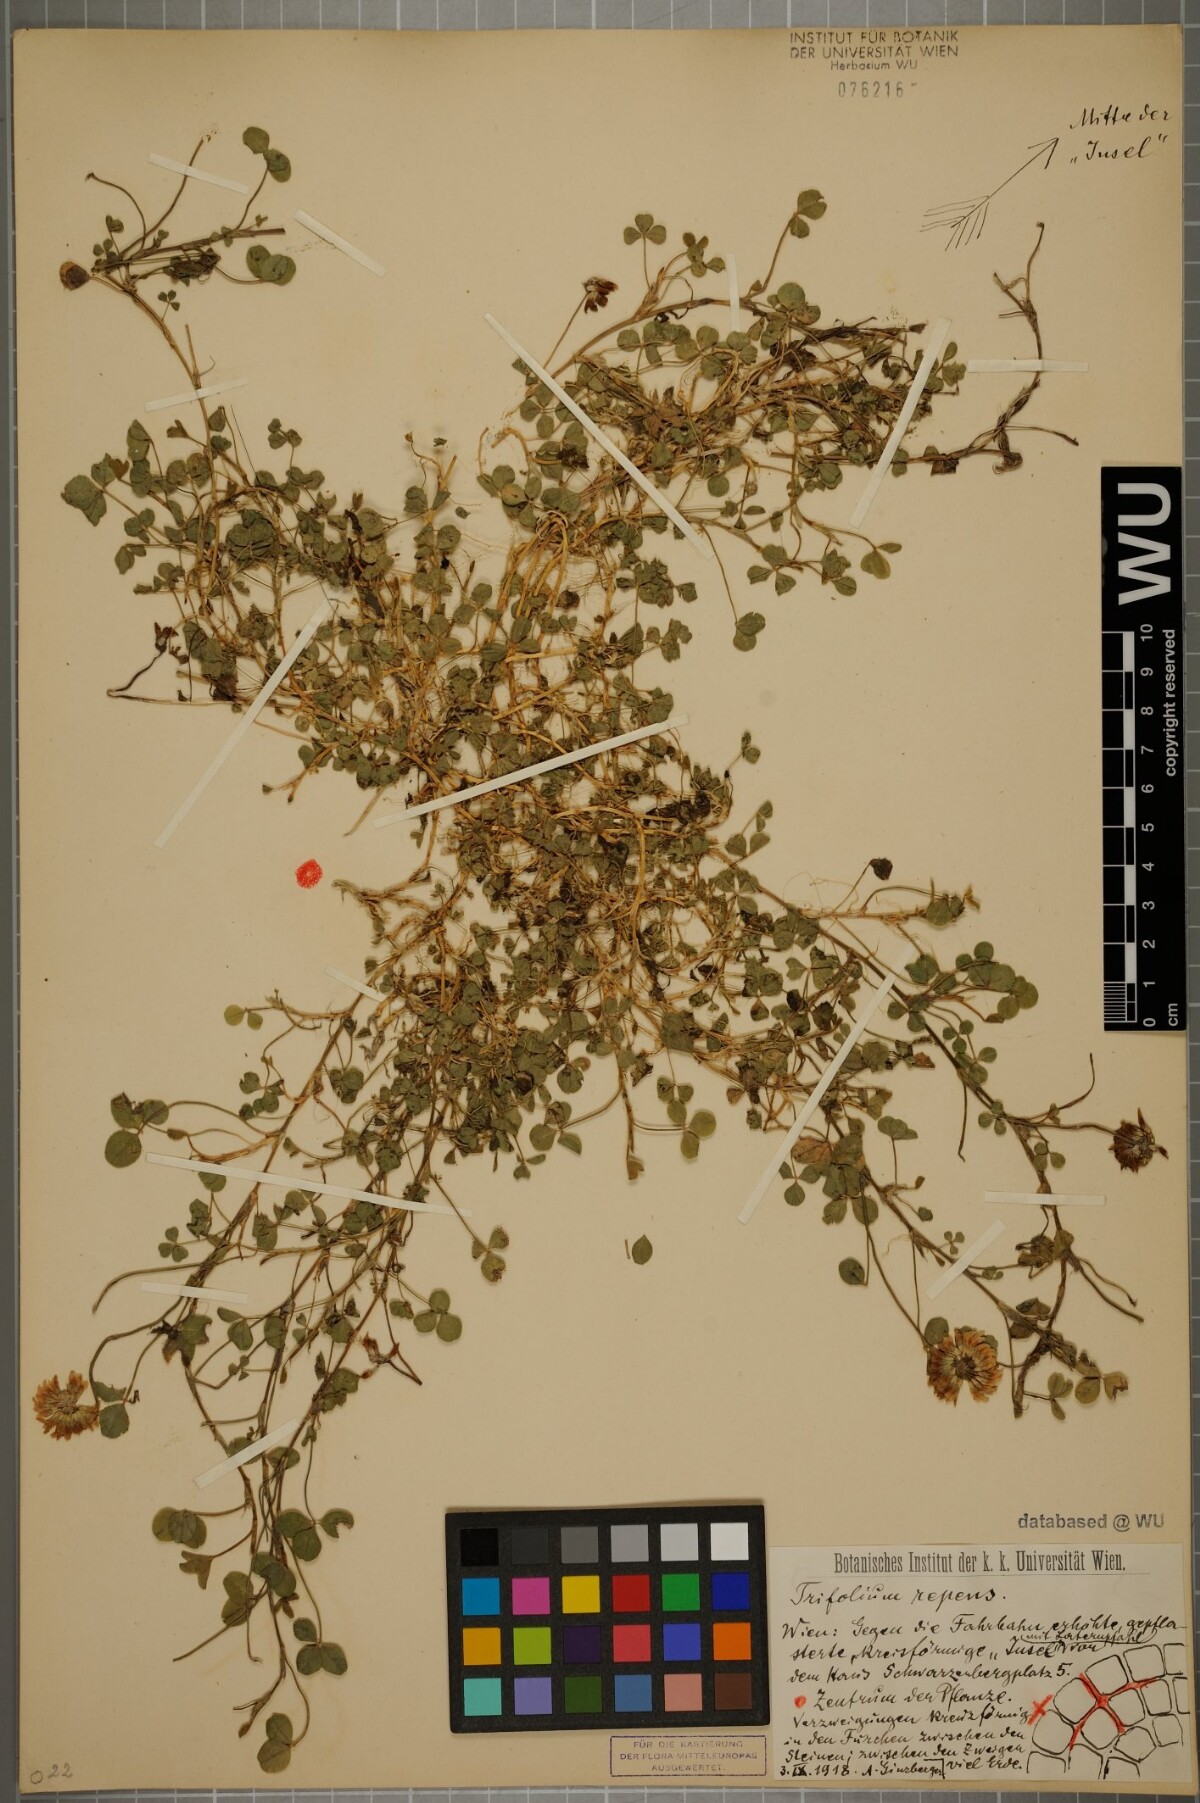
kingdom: Plantae
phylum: Tracheophyta
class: Magnoliopsida
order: Fabales
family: Fabaceae
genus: Trifolium
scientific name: Trifolium repens
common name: White clover
